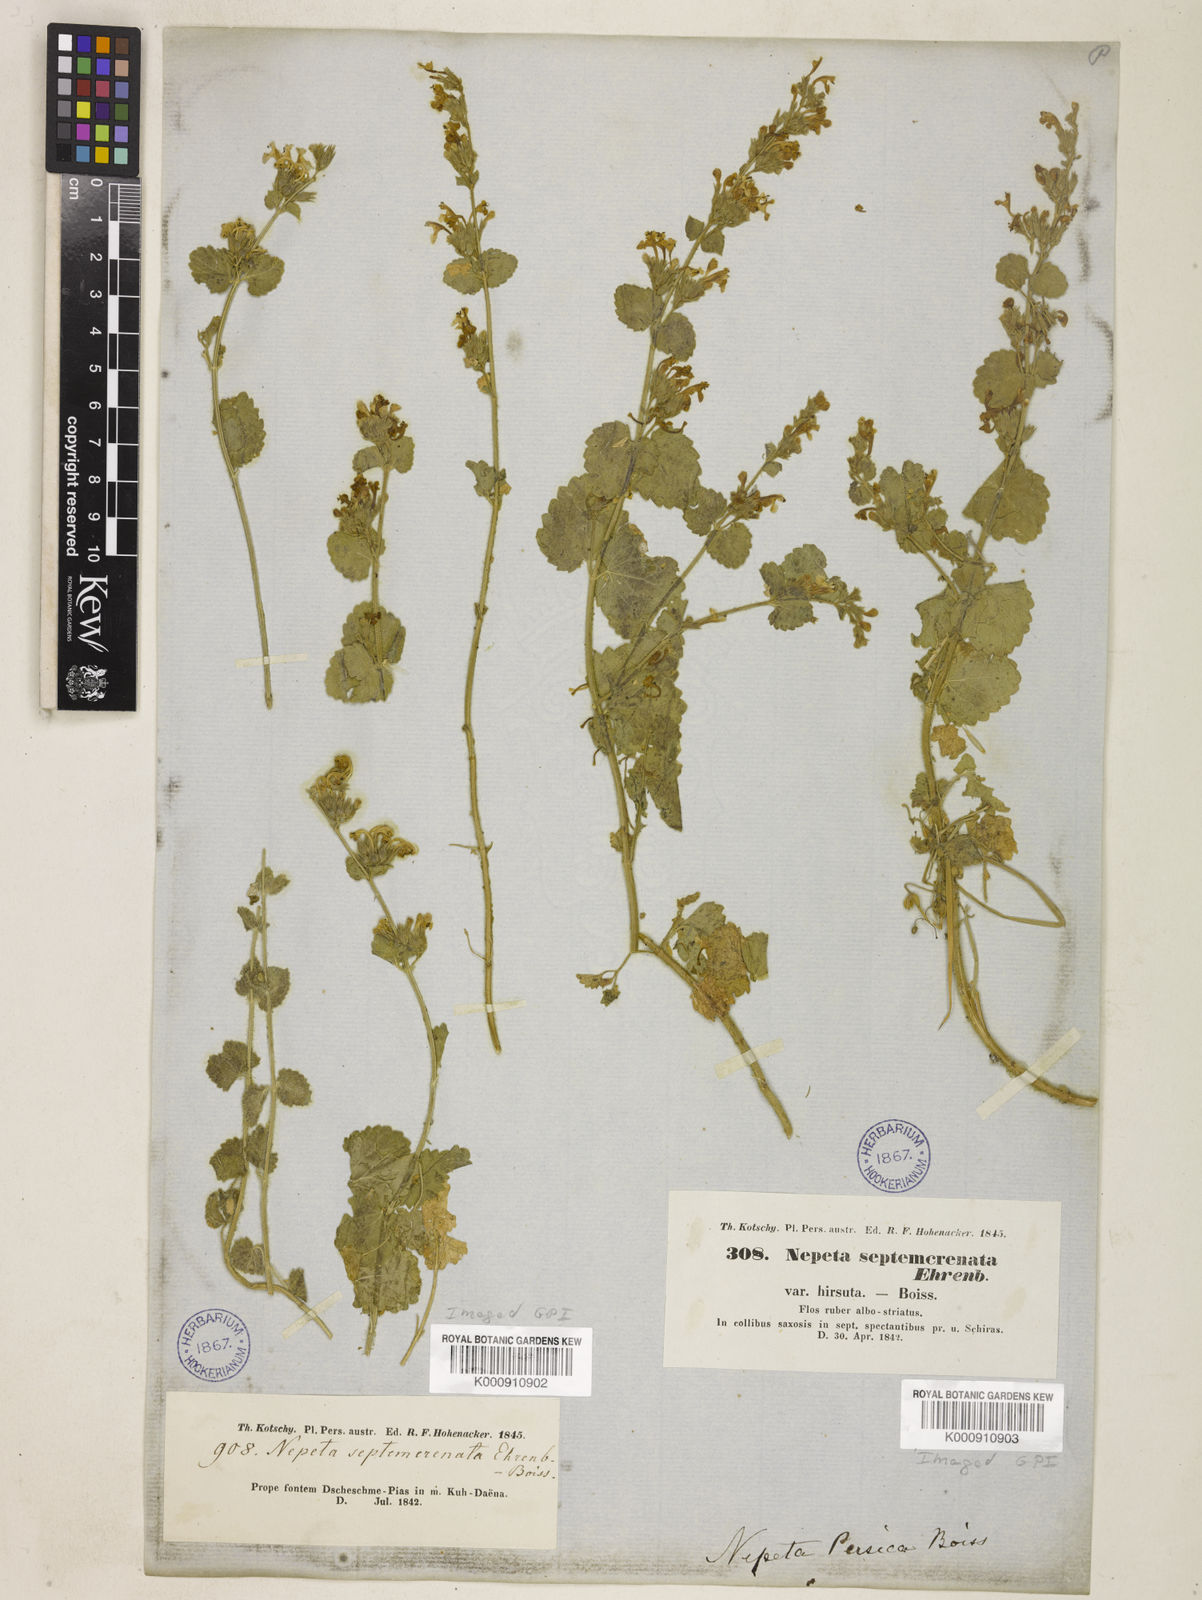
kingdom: Plantae
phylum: Tracheophyta
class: Magnoliopsida
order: Lamiales
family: Lamiaceae
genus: Nepeta
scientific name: Nepeta
